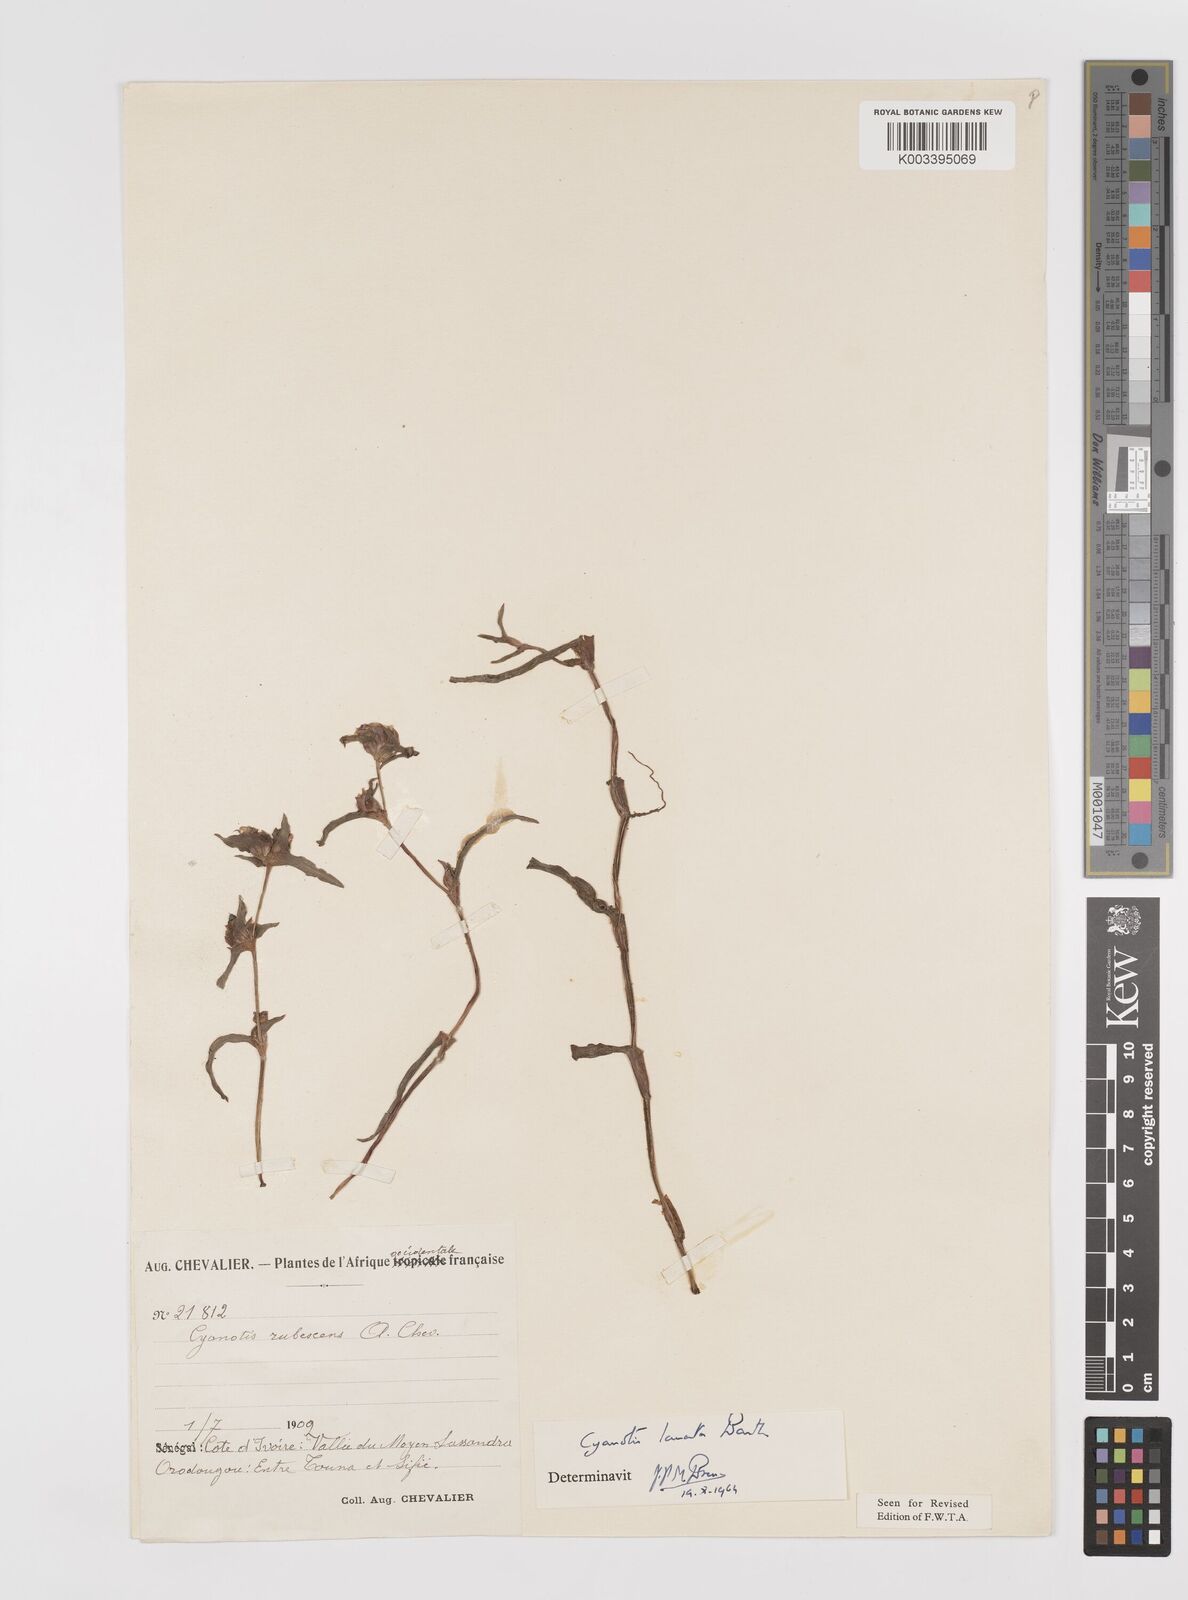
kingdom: Plantae
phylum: Tracheophyta
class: Liliopsida
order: Commelinales
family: Commelinaceae
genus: Cyanotis
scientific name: Cyanotis lanata
